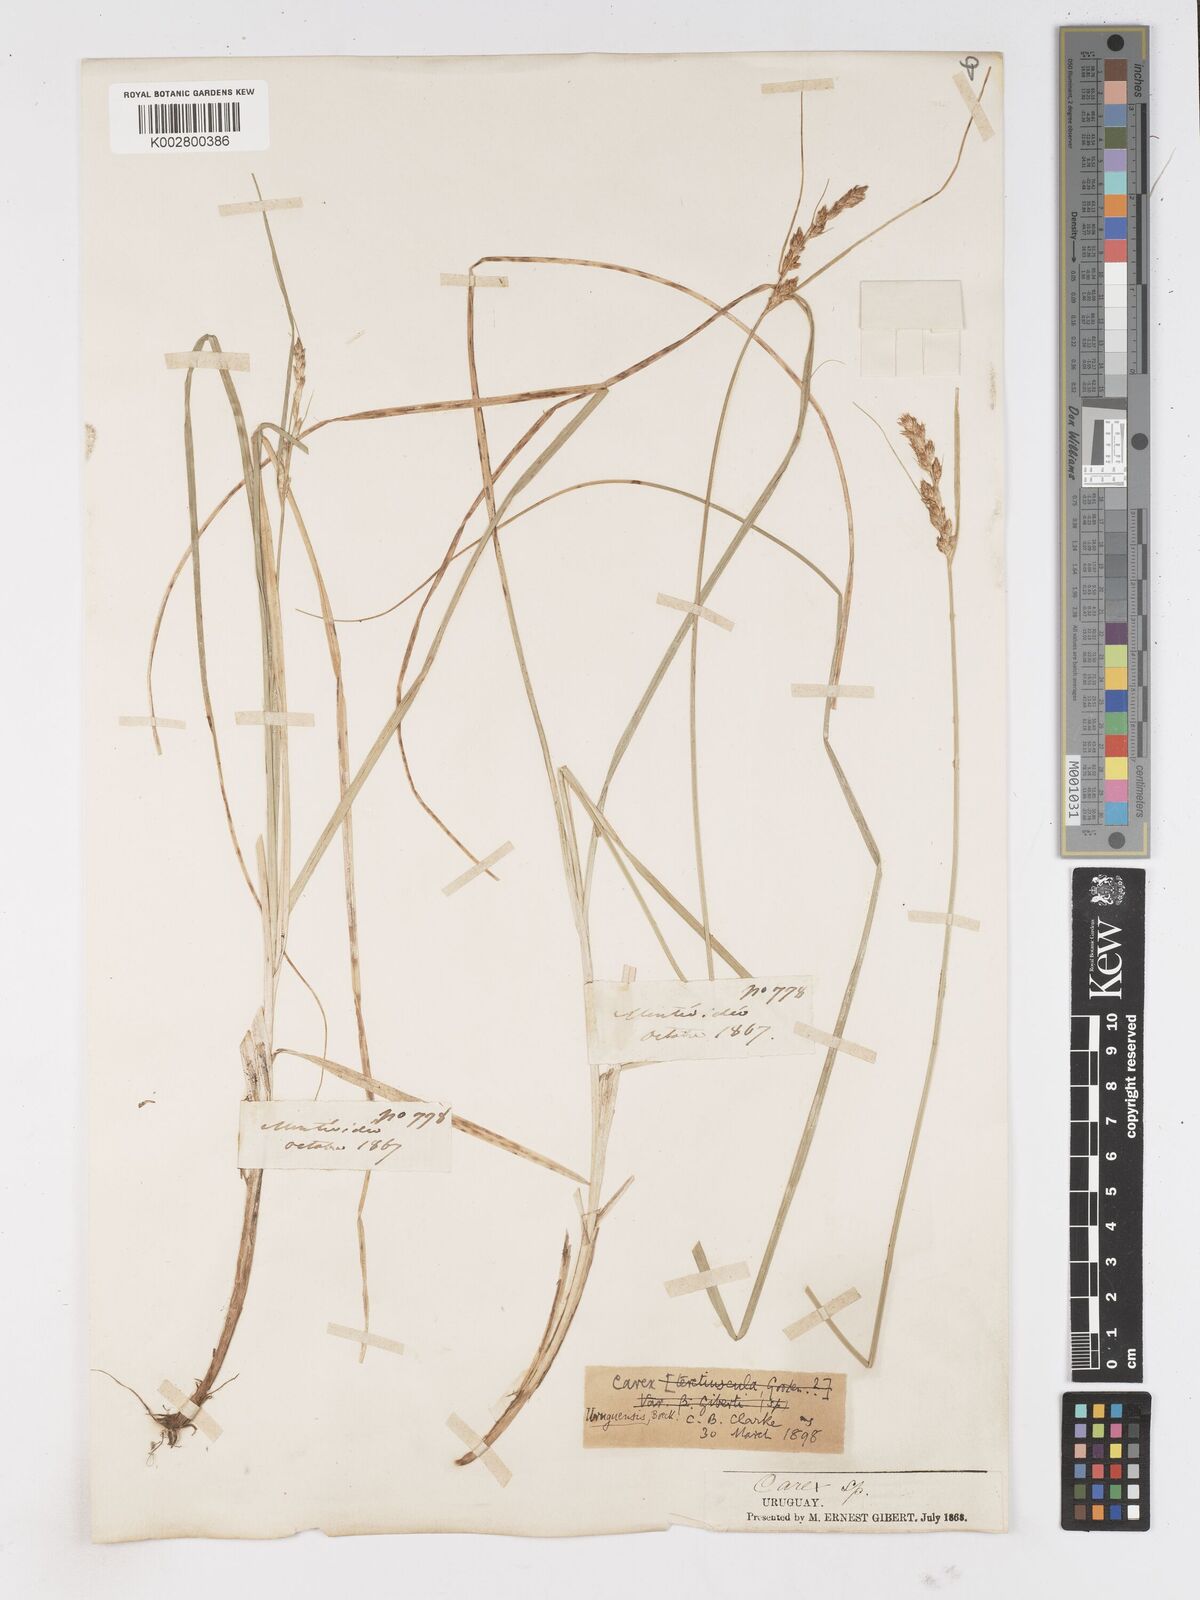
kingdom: Plantae
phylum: Tracheophyta
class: Liliopsida
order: Poales
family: Cyperaceae
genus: Carex
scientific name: Carex uruguensis
